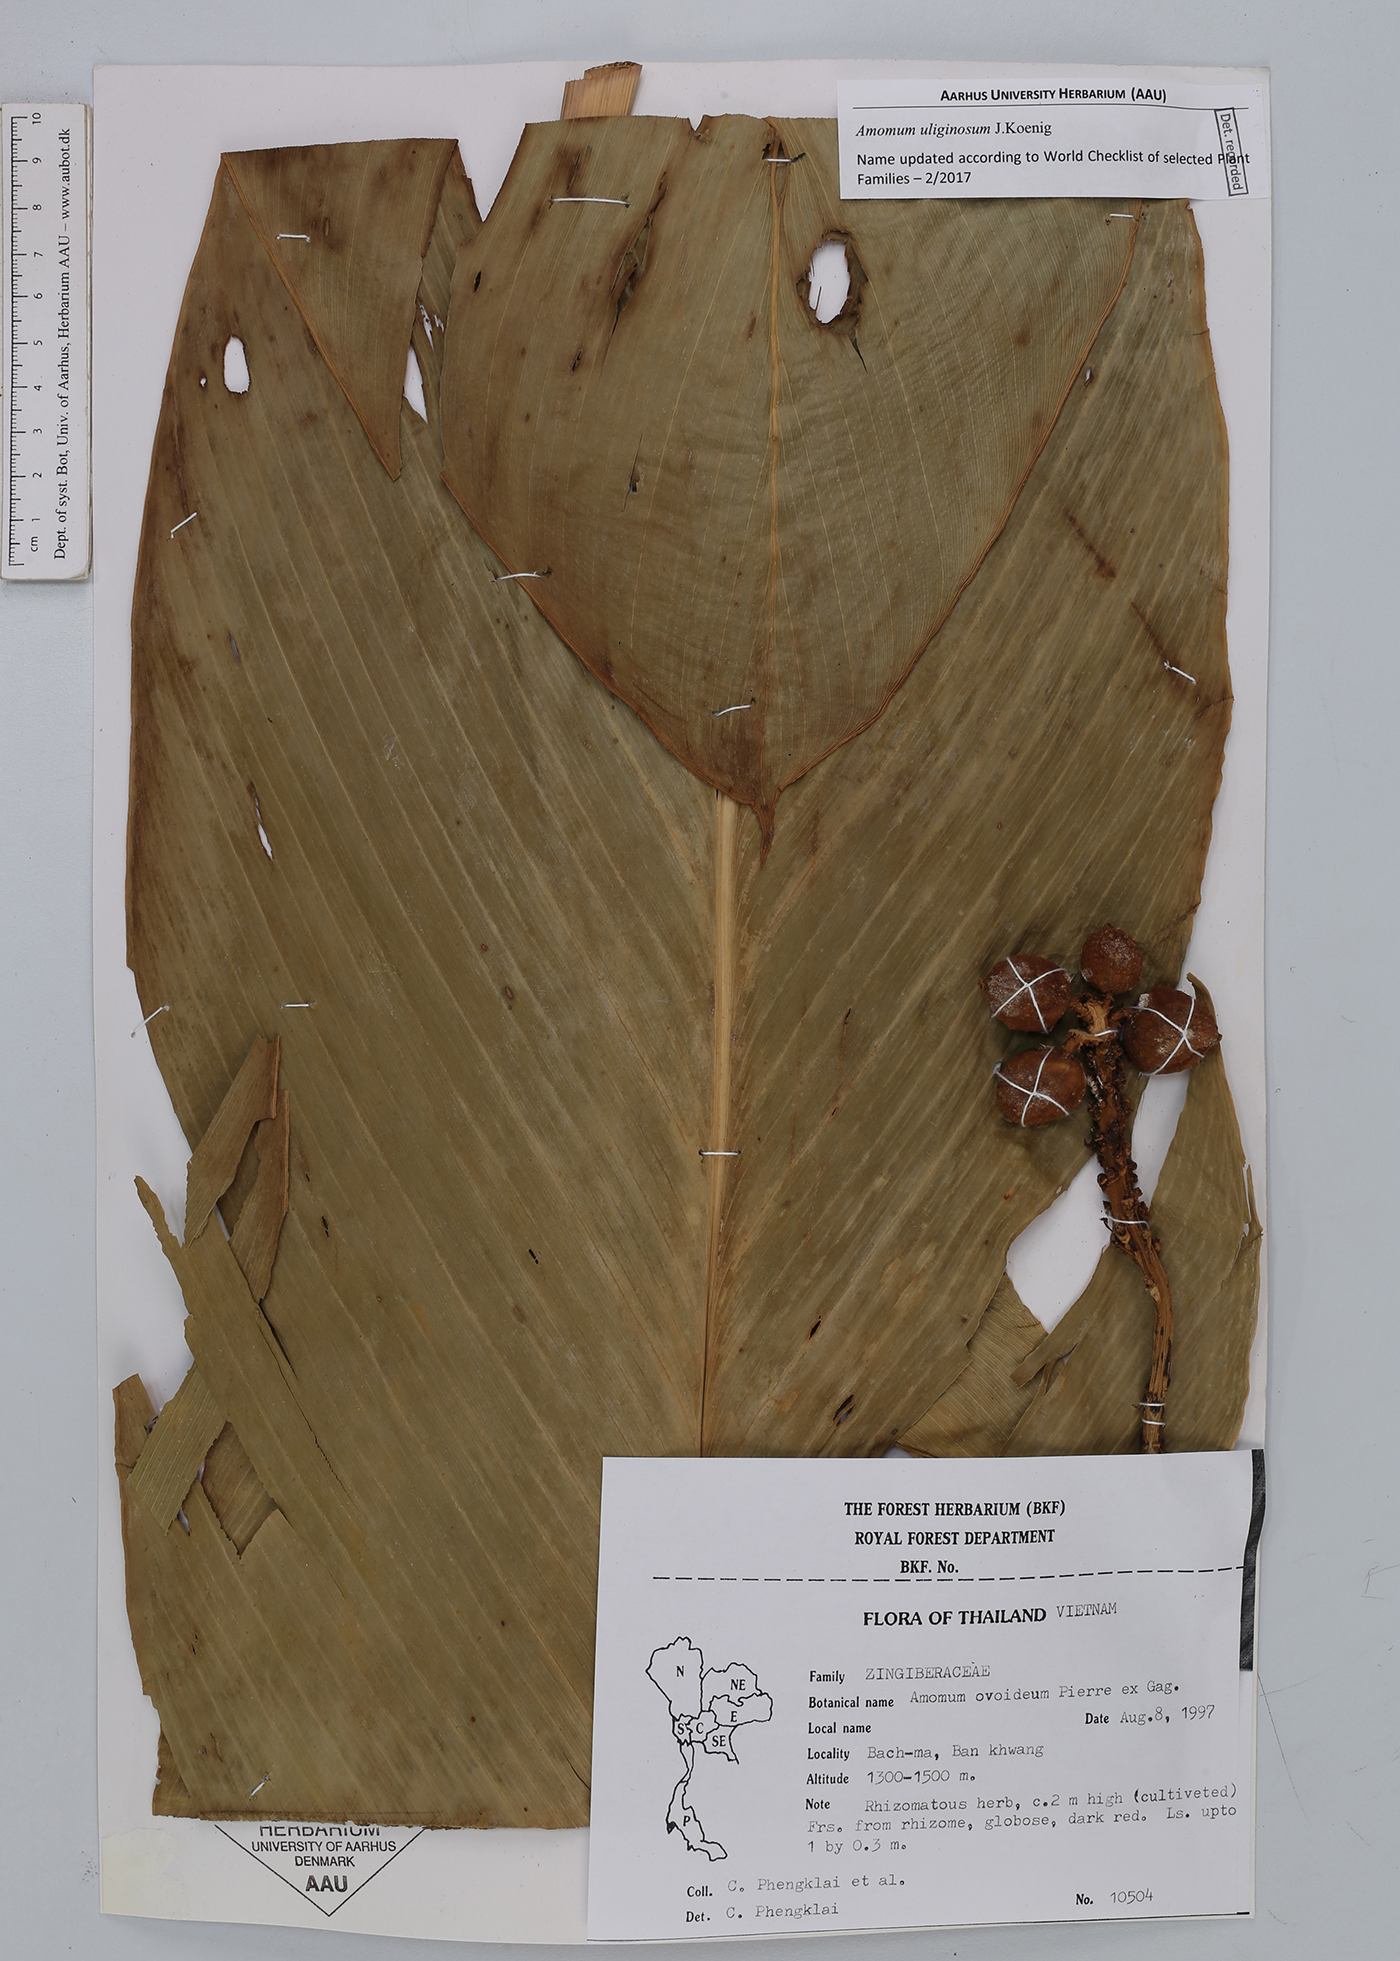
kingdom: Plantae
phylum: Tracheophyta
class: Liliopsida
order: Zingiberales
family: Zingiberaceae
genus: Wurfbainia
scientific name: Wurfbainia uliginosa
